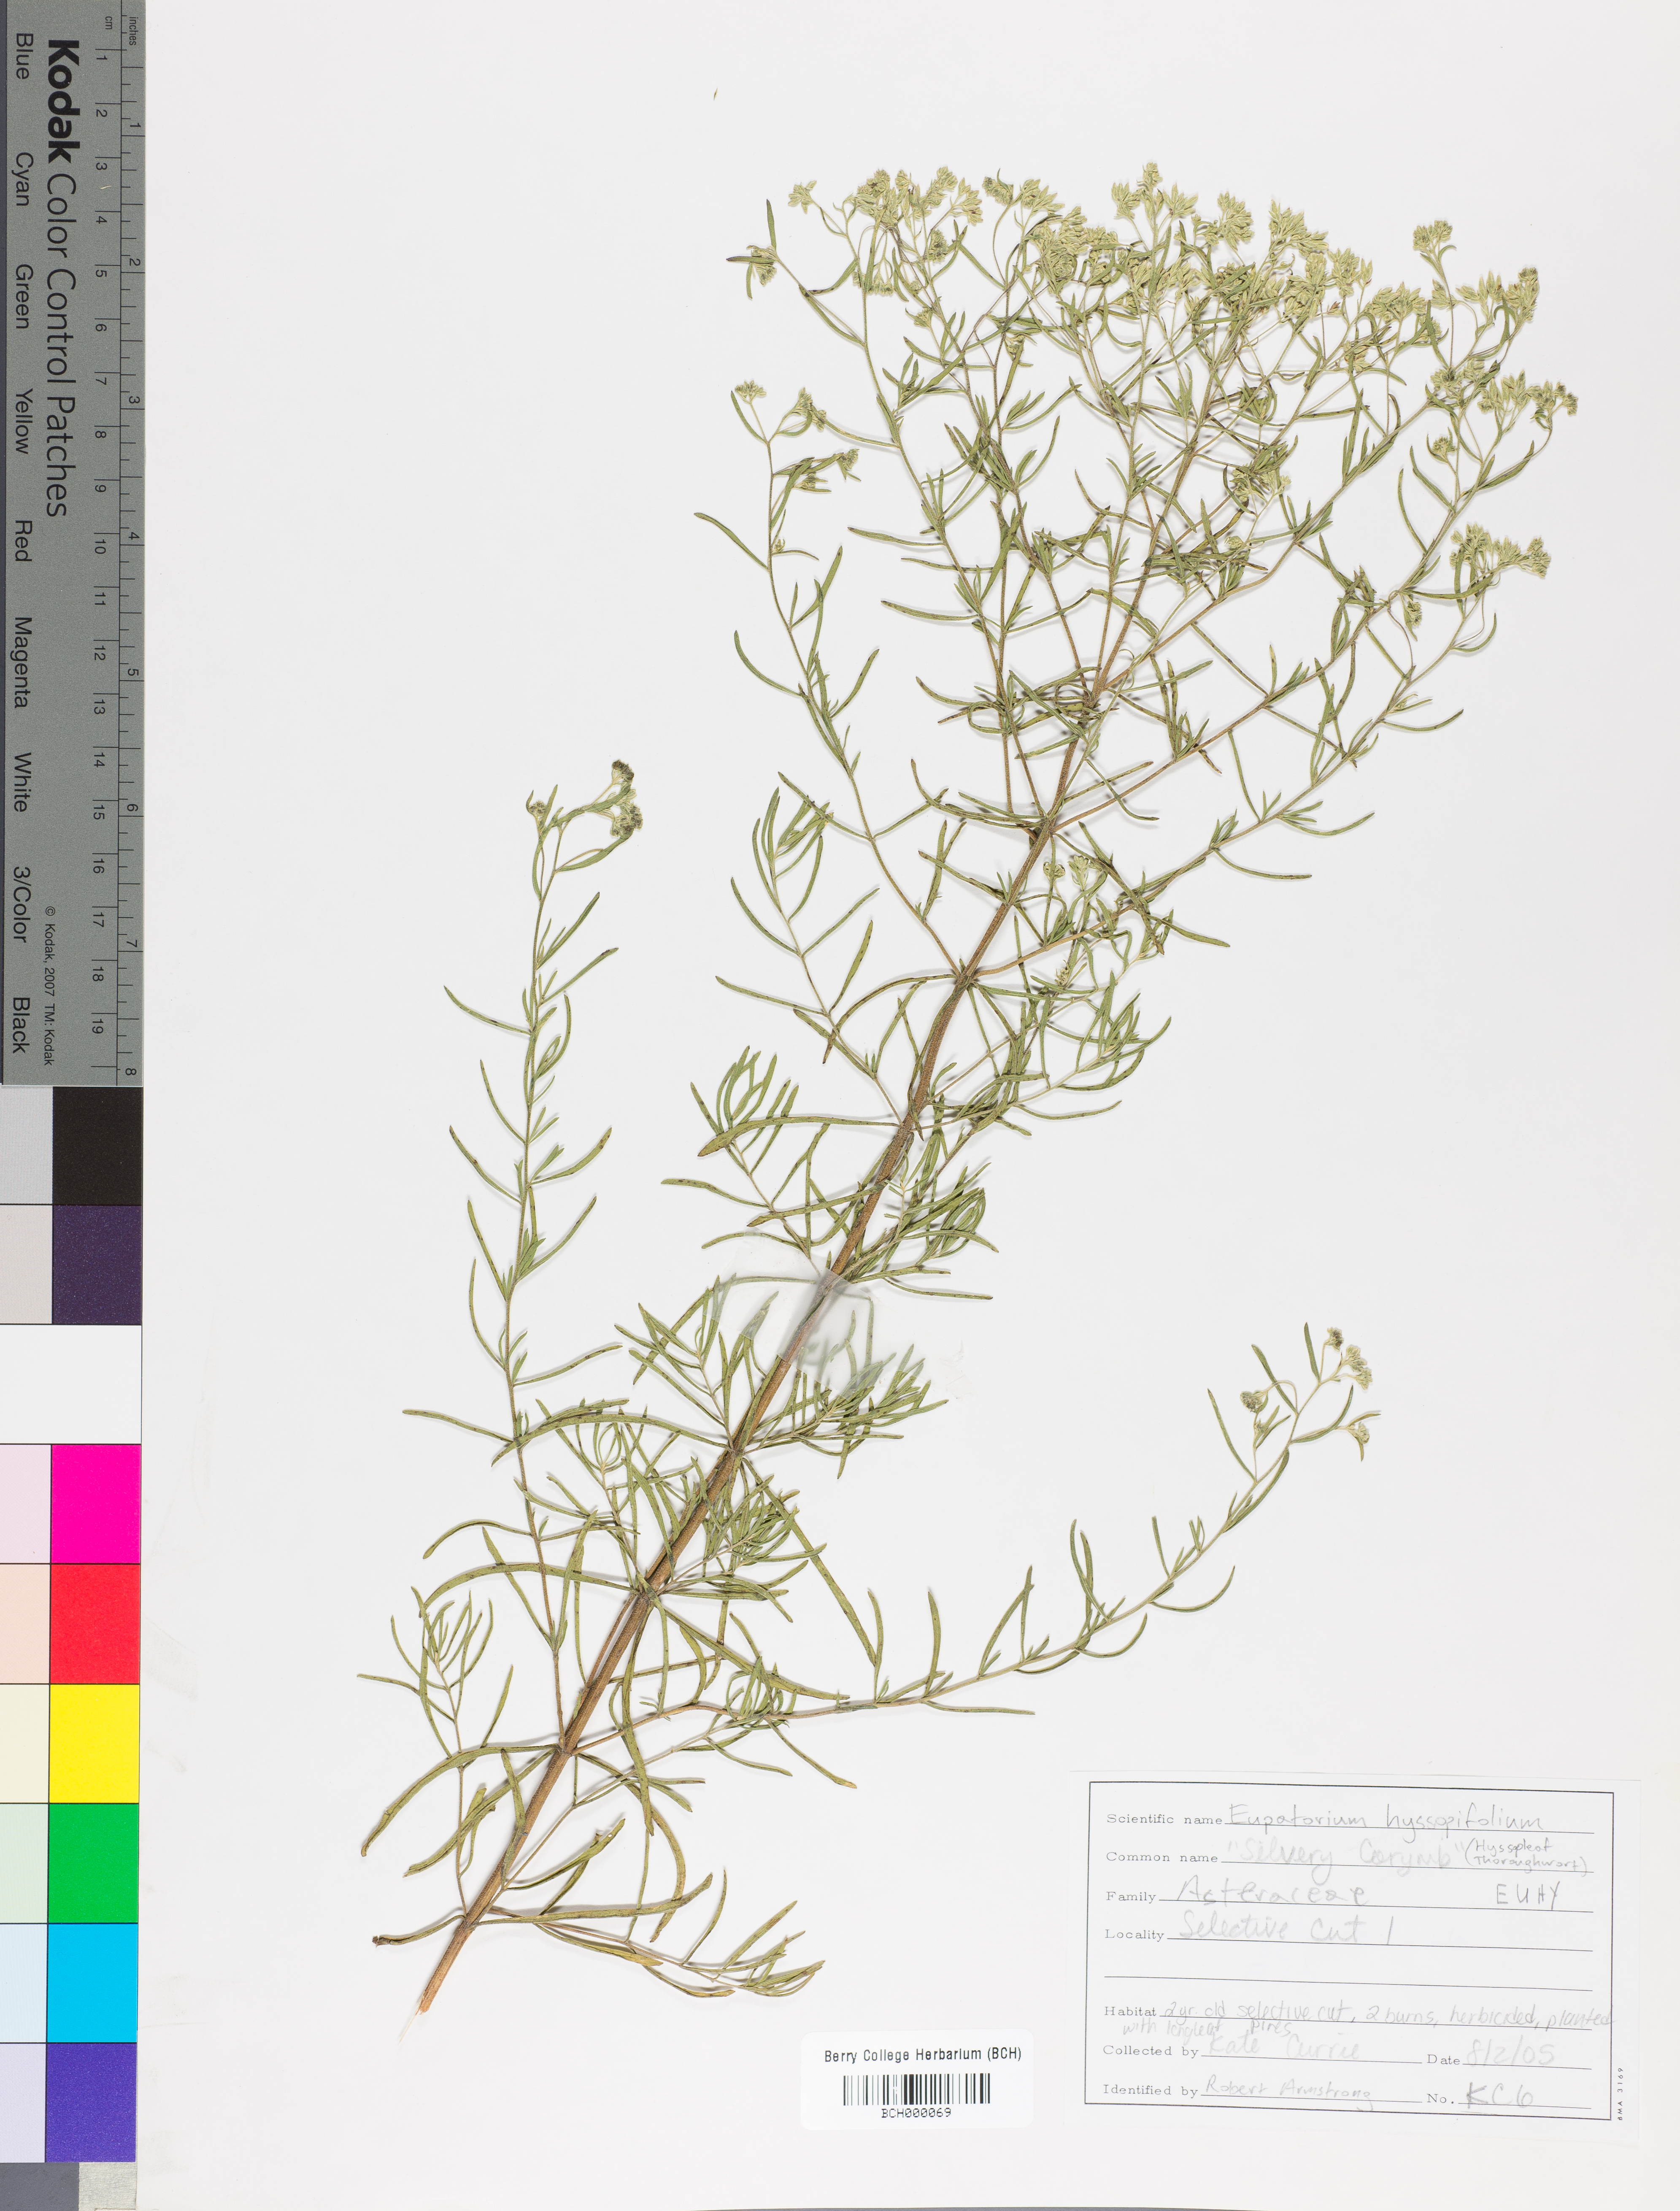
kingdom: Plantae
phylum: Tracheophyta
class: Magnoliopsida
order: Asterales
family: Asteraceae
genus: Eupatorium
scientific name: Eupatorium hyssopifolium
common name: Hyssop-leaf thoroughwort
